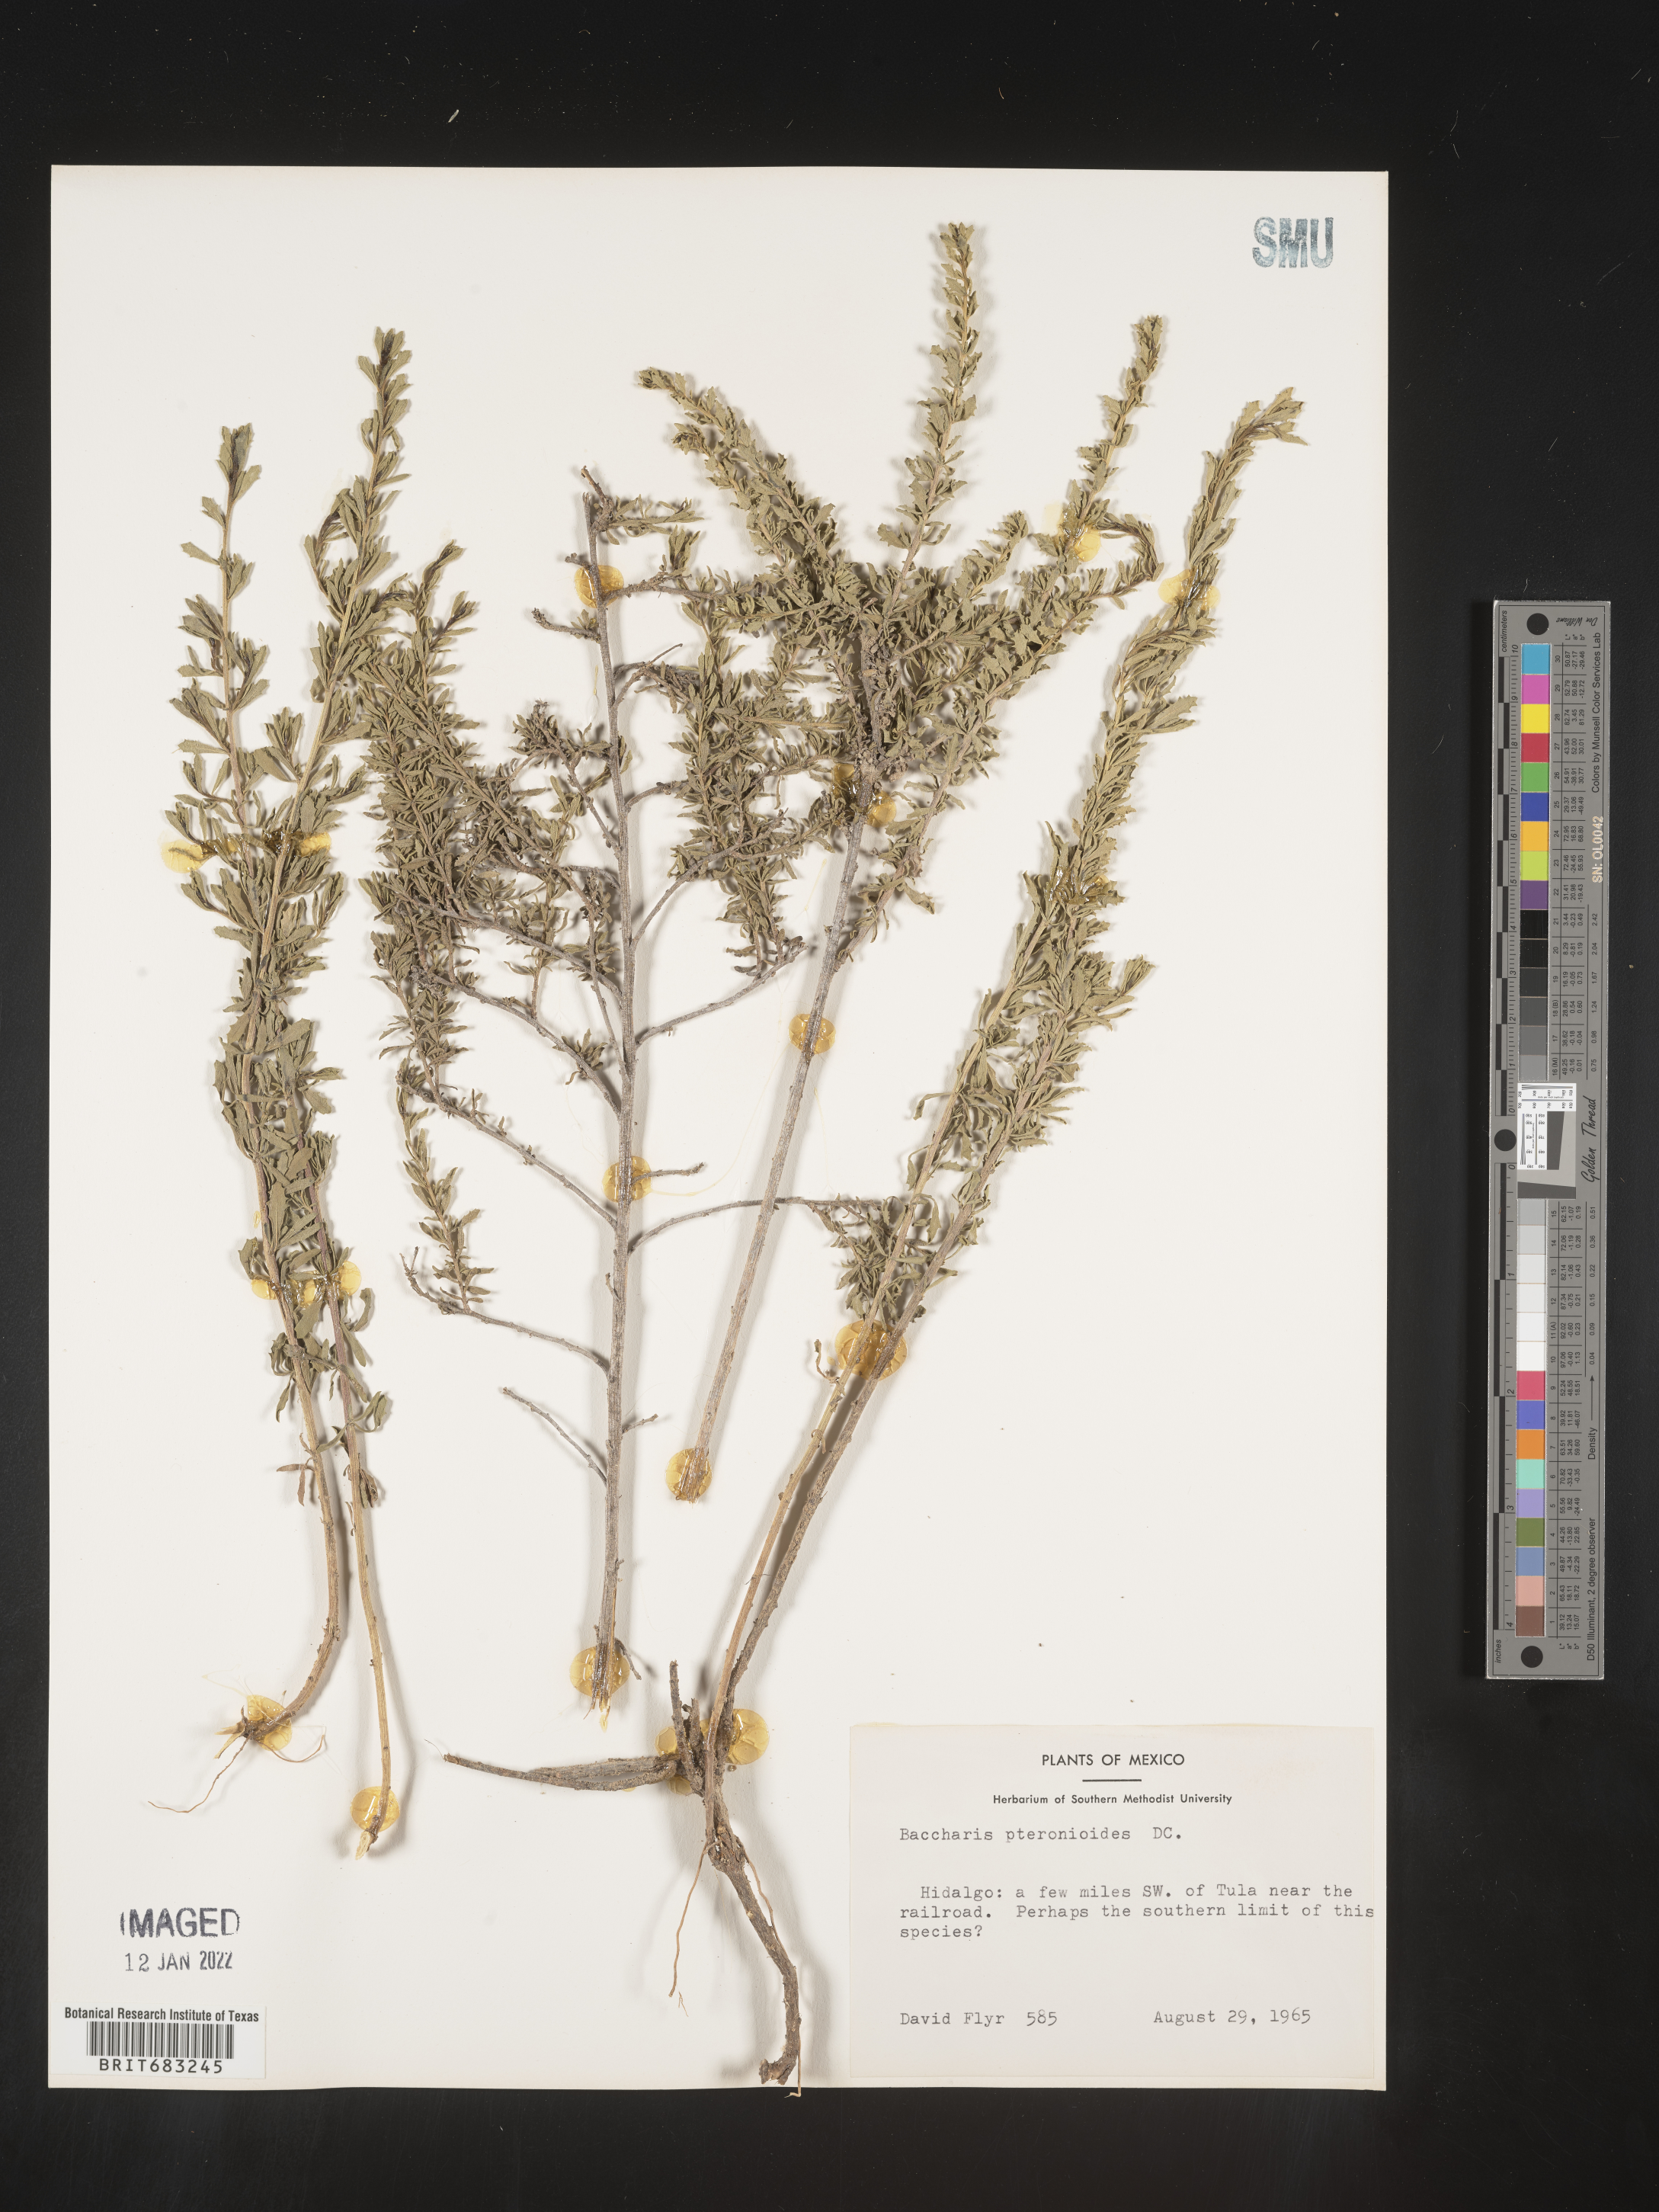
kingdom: Plantae
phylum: Tracheophyta
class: Magnoliopsida
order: Asterales
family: Asteraceae
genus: Baccharis
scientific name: Baccharis pteronioides
